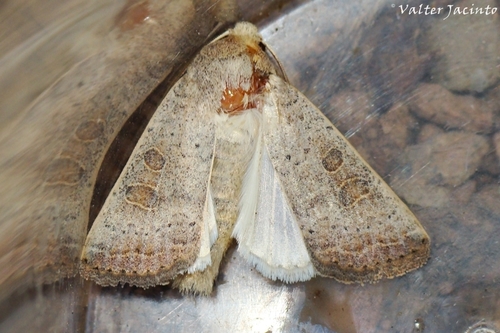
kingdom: Animalia
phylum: Arthropoda
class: Insecta
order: Lepidoptera
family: Noctuidae
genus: Hoplodrina
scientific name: Hoplodrina ambigua
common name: Vine's rustic
